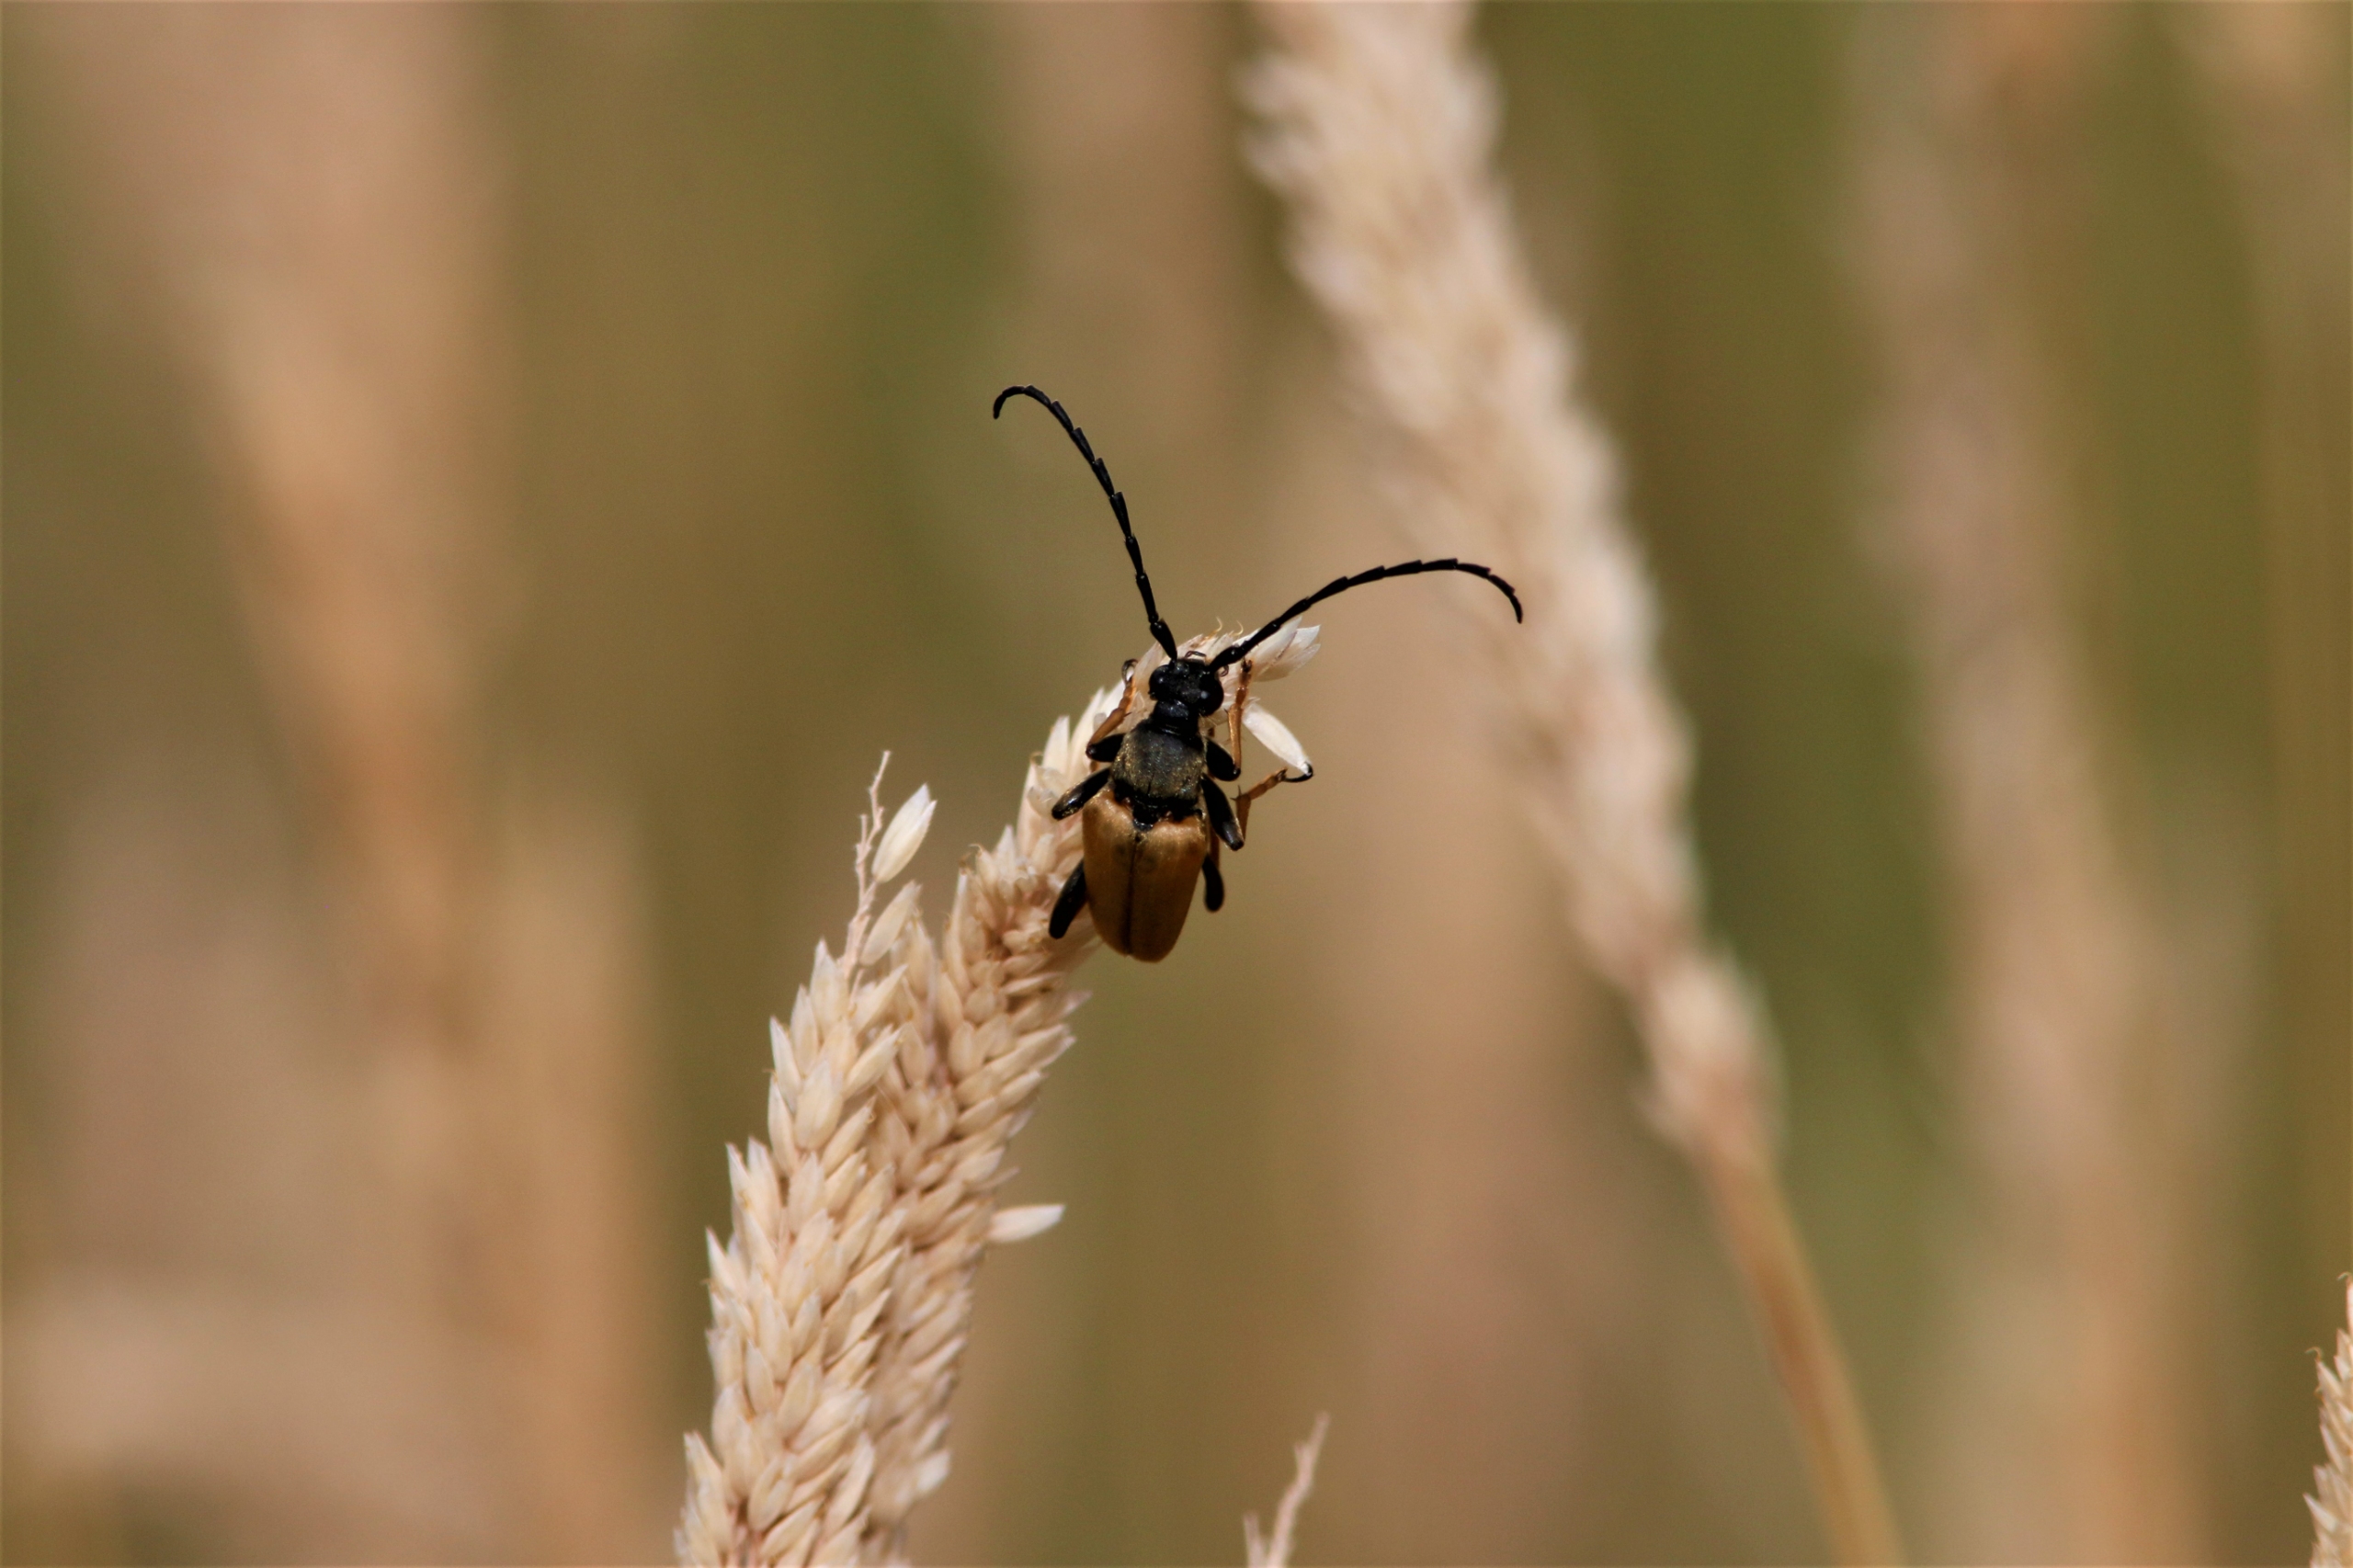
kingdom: Animalia
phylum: Arthropoda
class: Insecta
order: Coleoptera
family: Cerambycidae
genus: Stictoleptura
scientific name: Stictoleptura rubra
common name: Rød blomsterbuk
